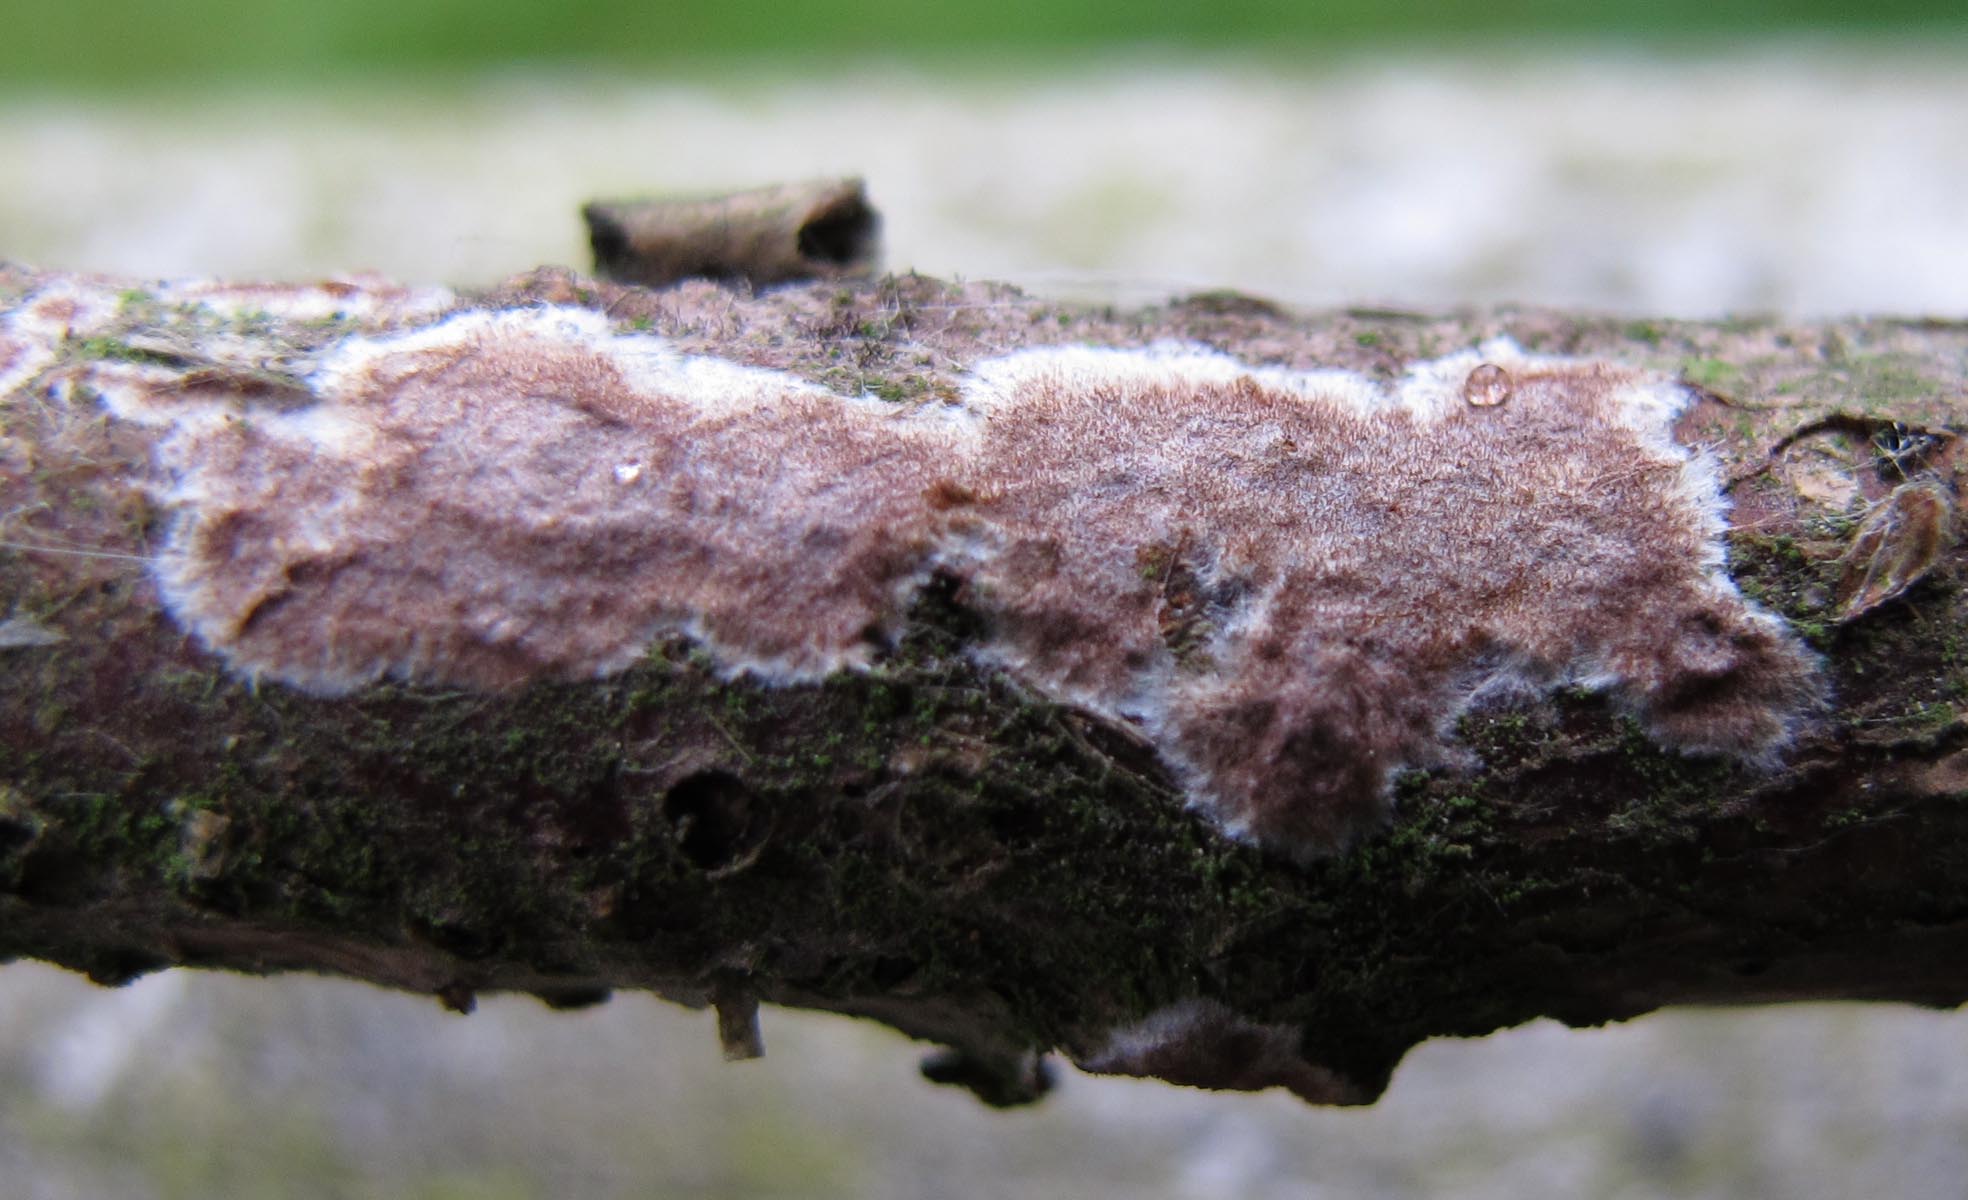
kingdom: Fungi
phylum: Basidiomycota
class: Agaricomycetes
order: Hymenochaetales
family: Hymenochaetaceae
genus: Hydnoporia
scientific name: Hydnoporia corrugata
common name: sprække-ruslædersvamp
